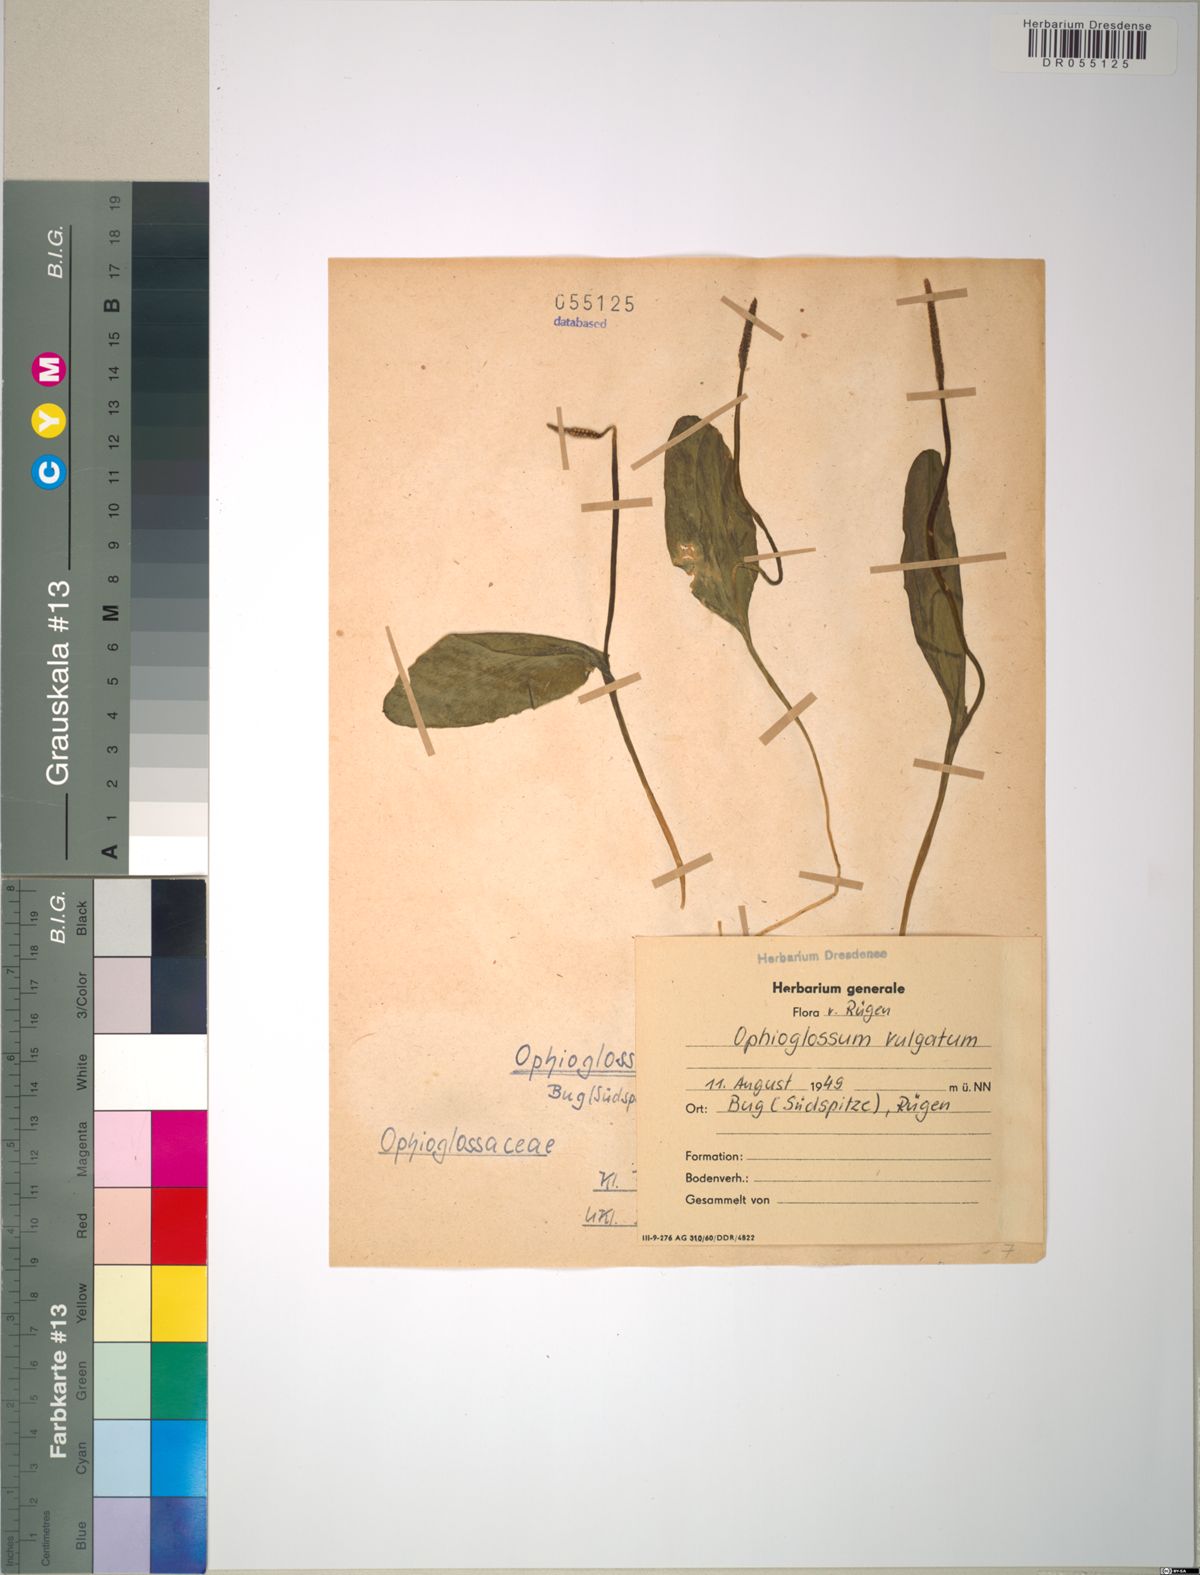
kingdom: Plantae
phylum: Tracheophyta
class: Polypodiopsida
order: Ophioglossales
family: Ophioglossaceae
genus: Ophioglossum
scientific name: Ophioglossum vulgatum
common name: Adder's-tongue
